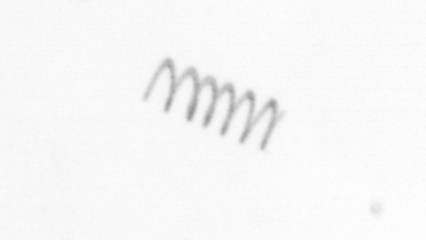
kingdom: Chromista
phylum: Ochrophyta
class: Bacillariophyceae
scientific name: Bacillariophyceae
